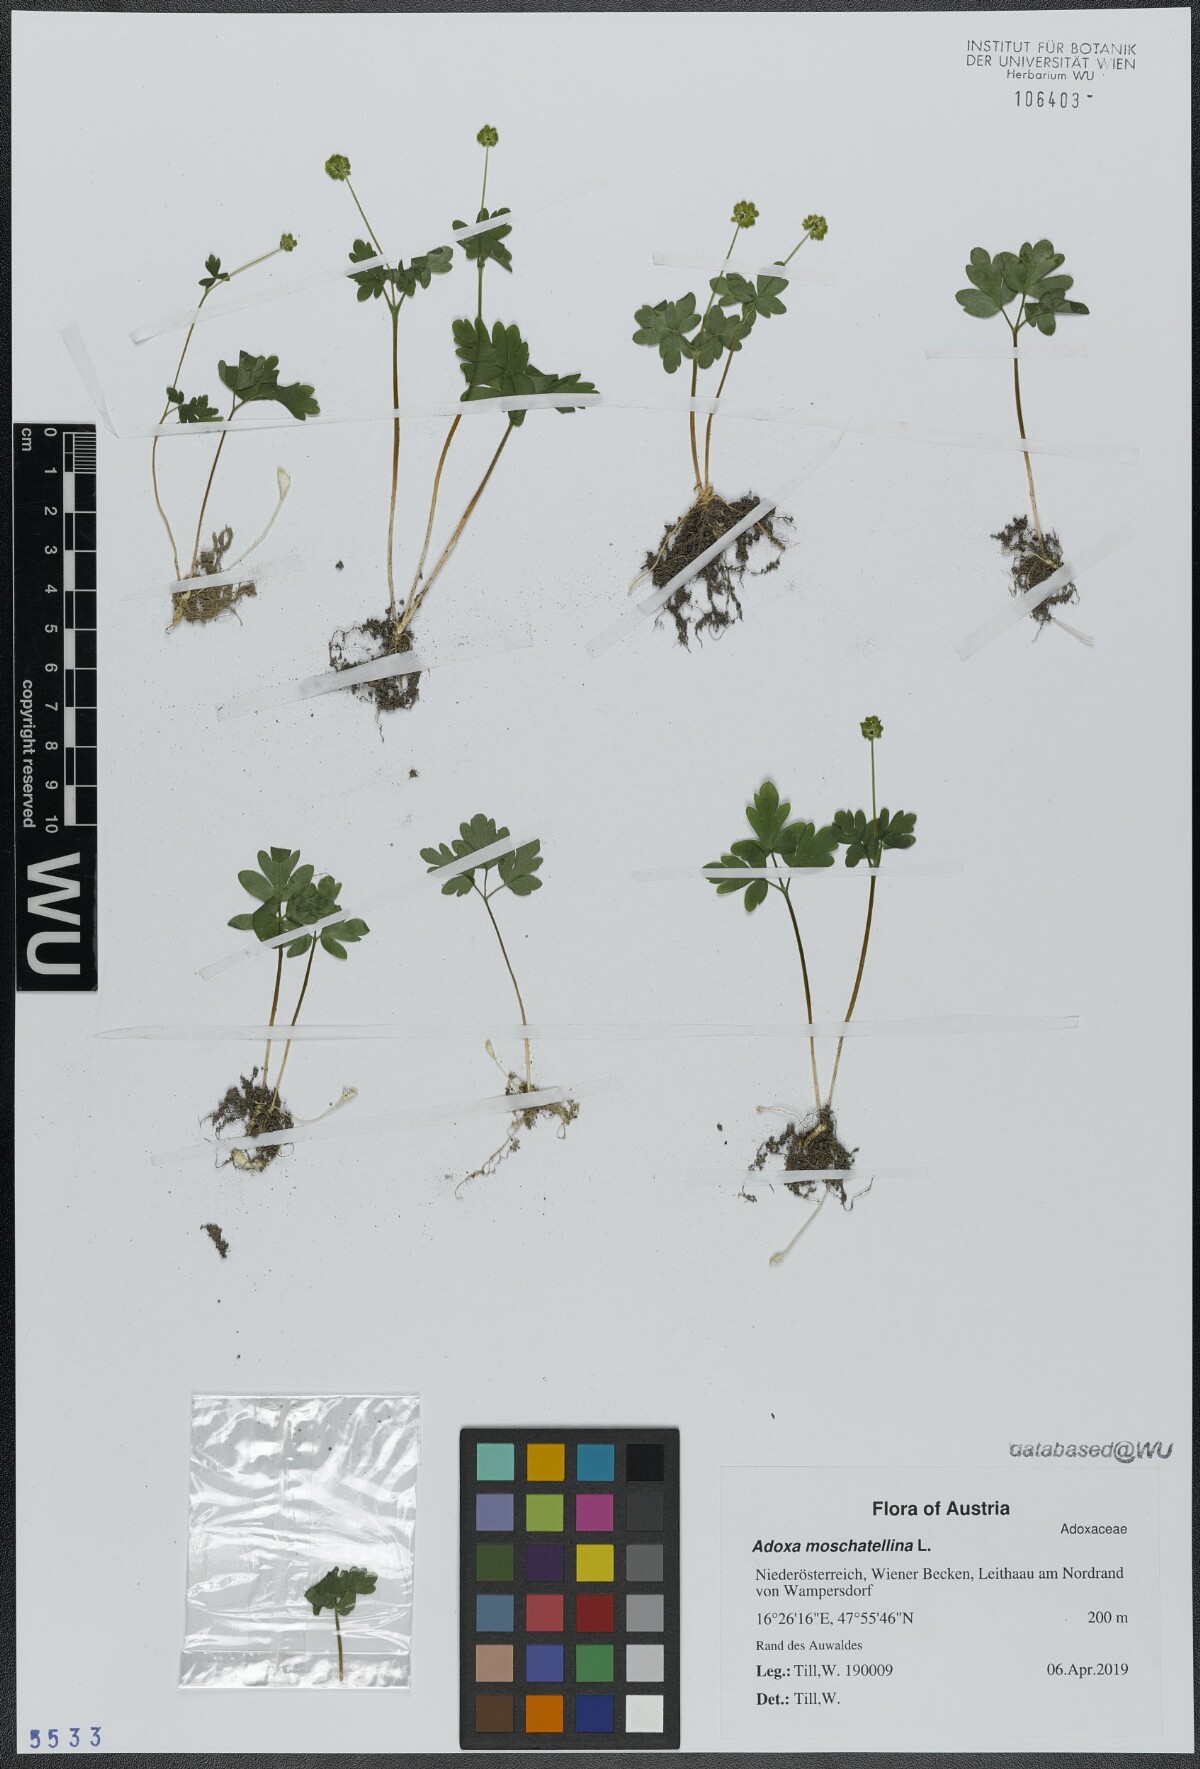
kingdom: Plantae
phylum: Tracheophyta
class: Magnoliopsida
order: Dipsacales
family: Viburnaceae
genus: Adoxa
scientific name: Adoxa moschatellina
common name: Moschatel
